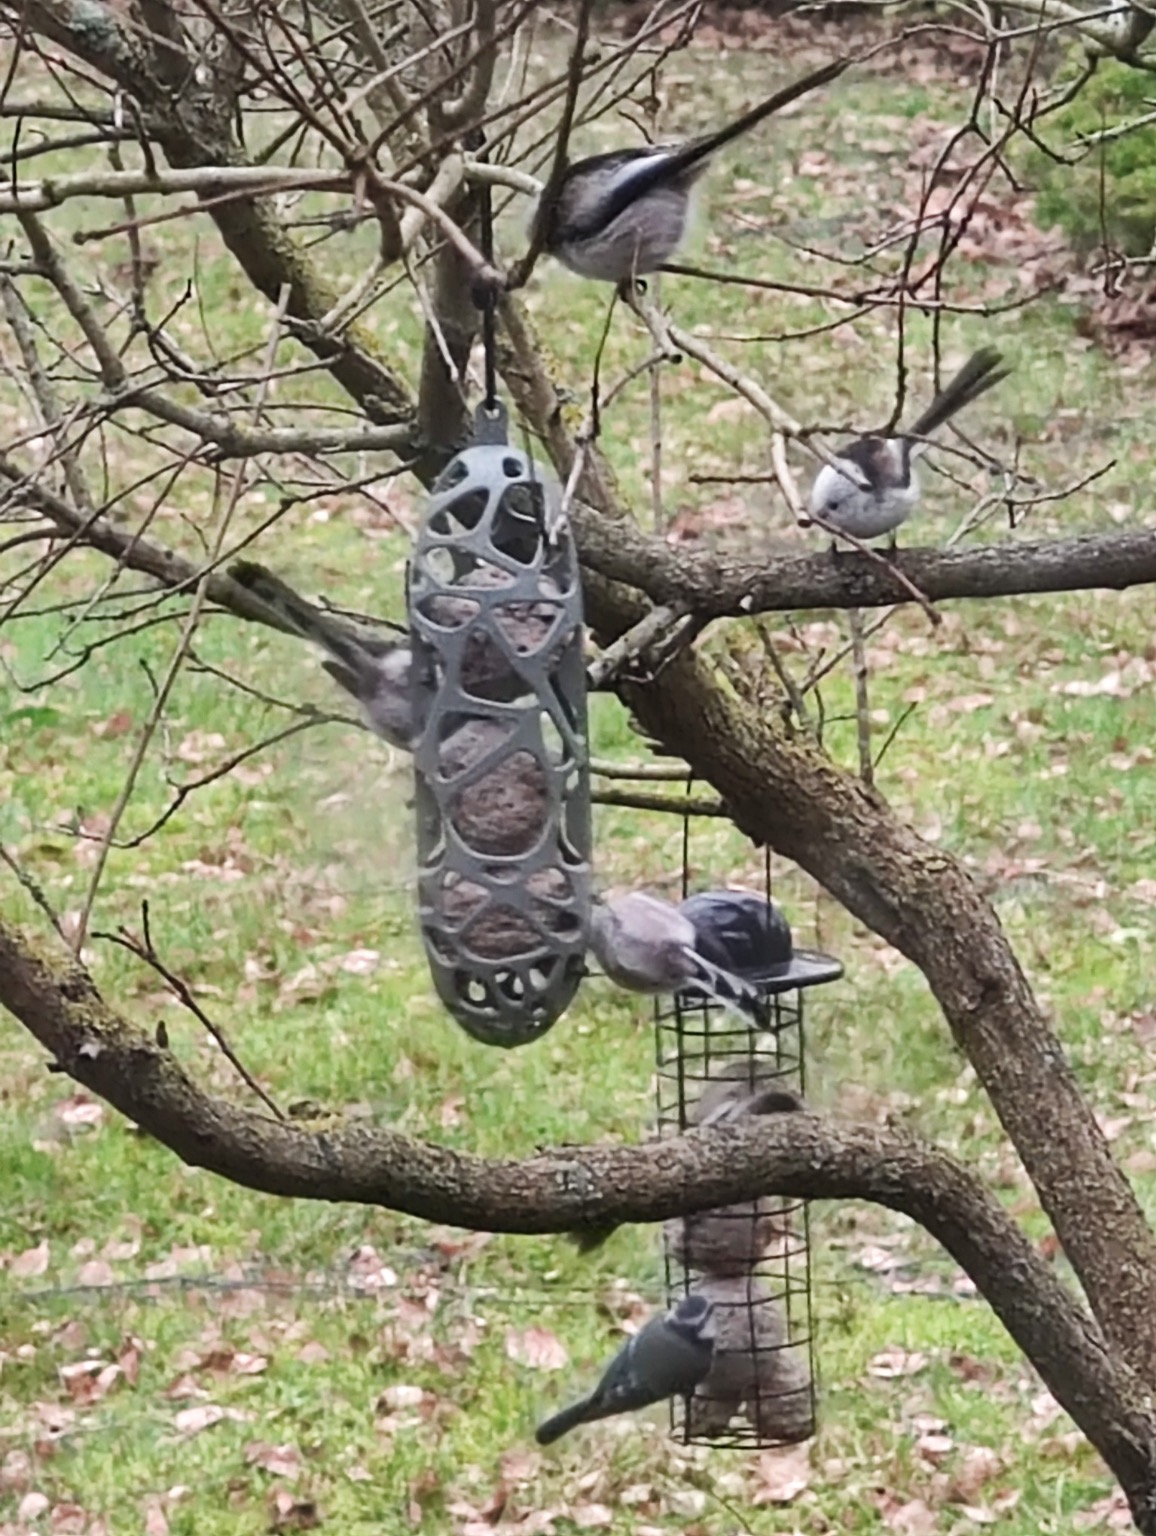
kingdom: Animalia
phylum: Chordata
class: Aves
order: Passeriformes
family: Aegithalidae
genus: Aegithalos
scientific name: Aegithalos caudatus
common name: Halemejse
